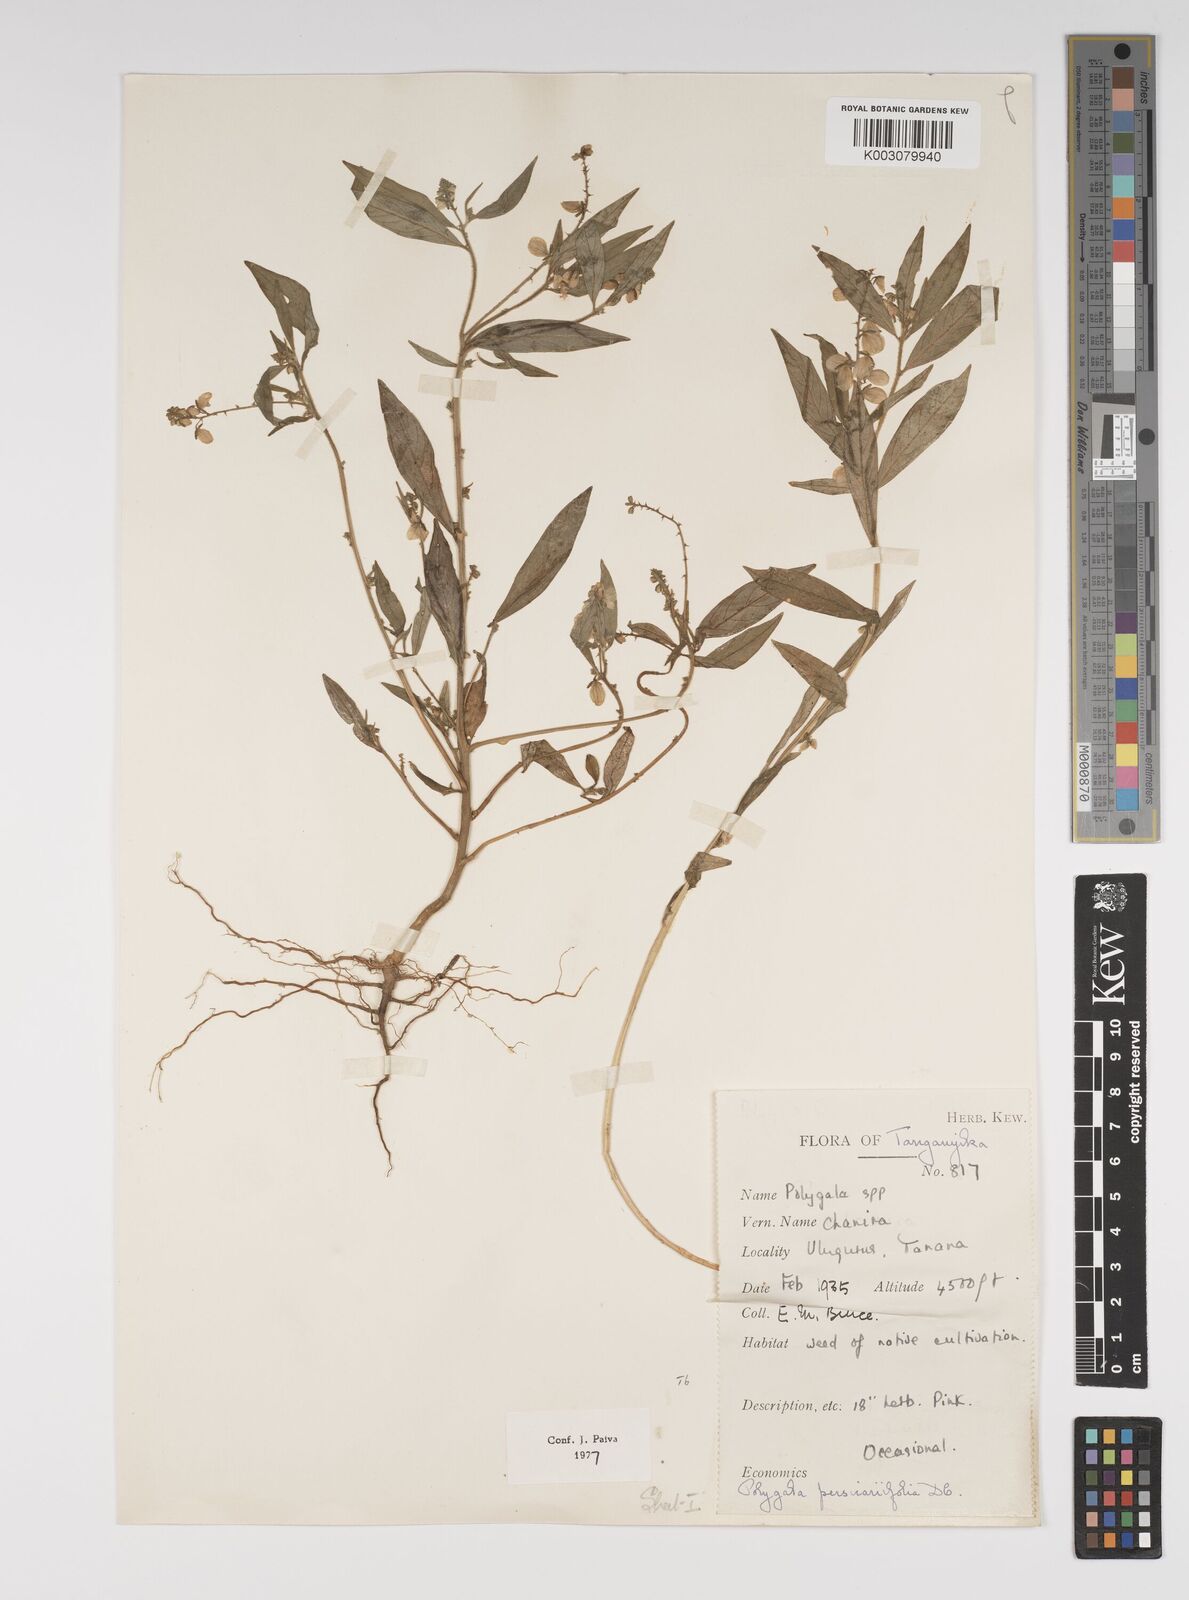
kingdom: Plantae
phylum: Tracheophyta
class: Magnoliopsida
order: Fabales
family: Polygalaceae
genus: Polygala
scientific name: Polygala persicariifolia
